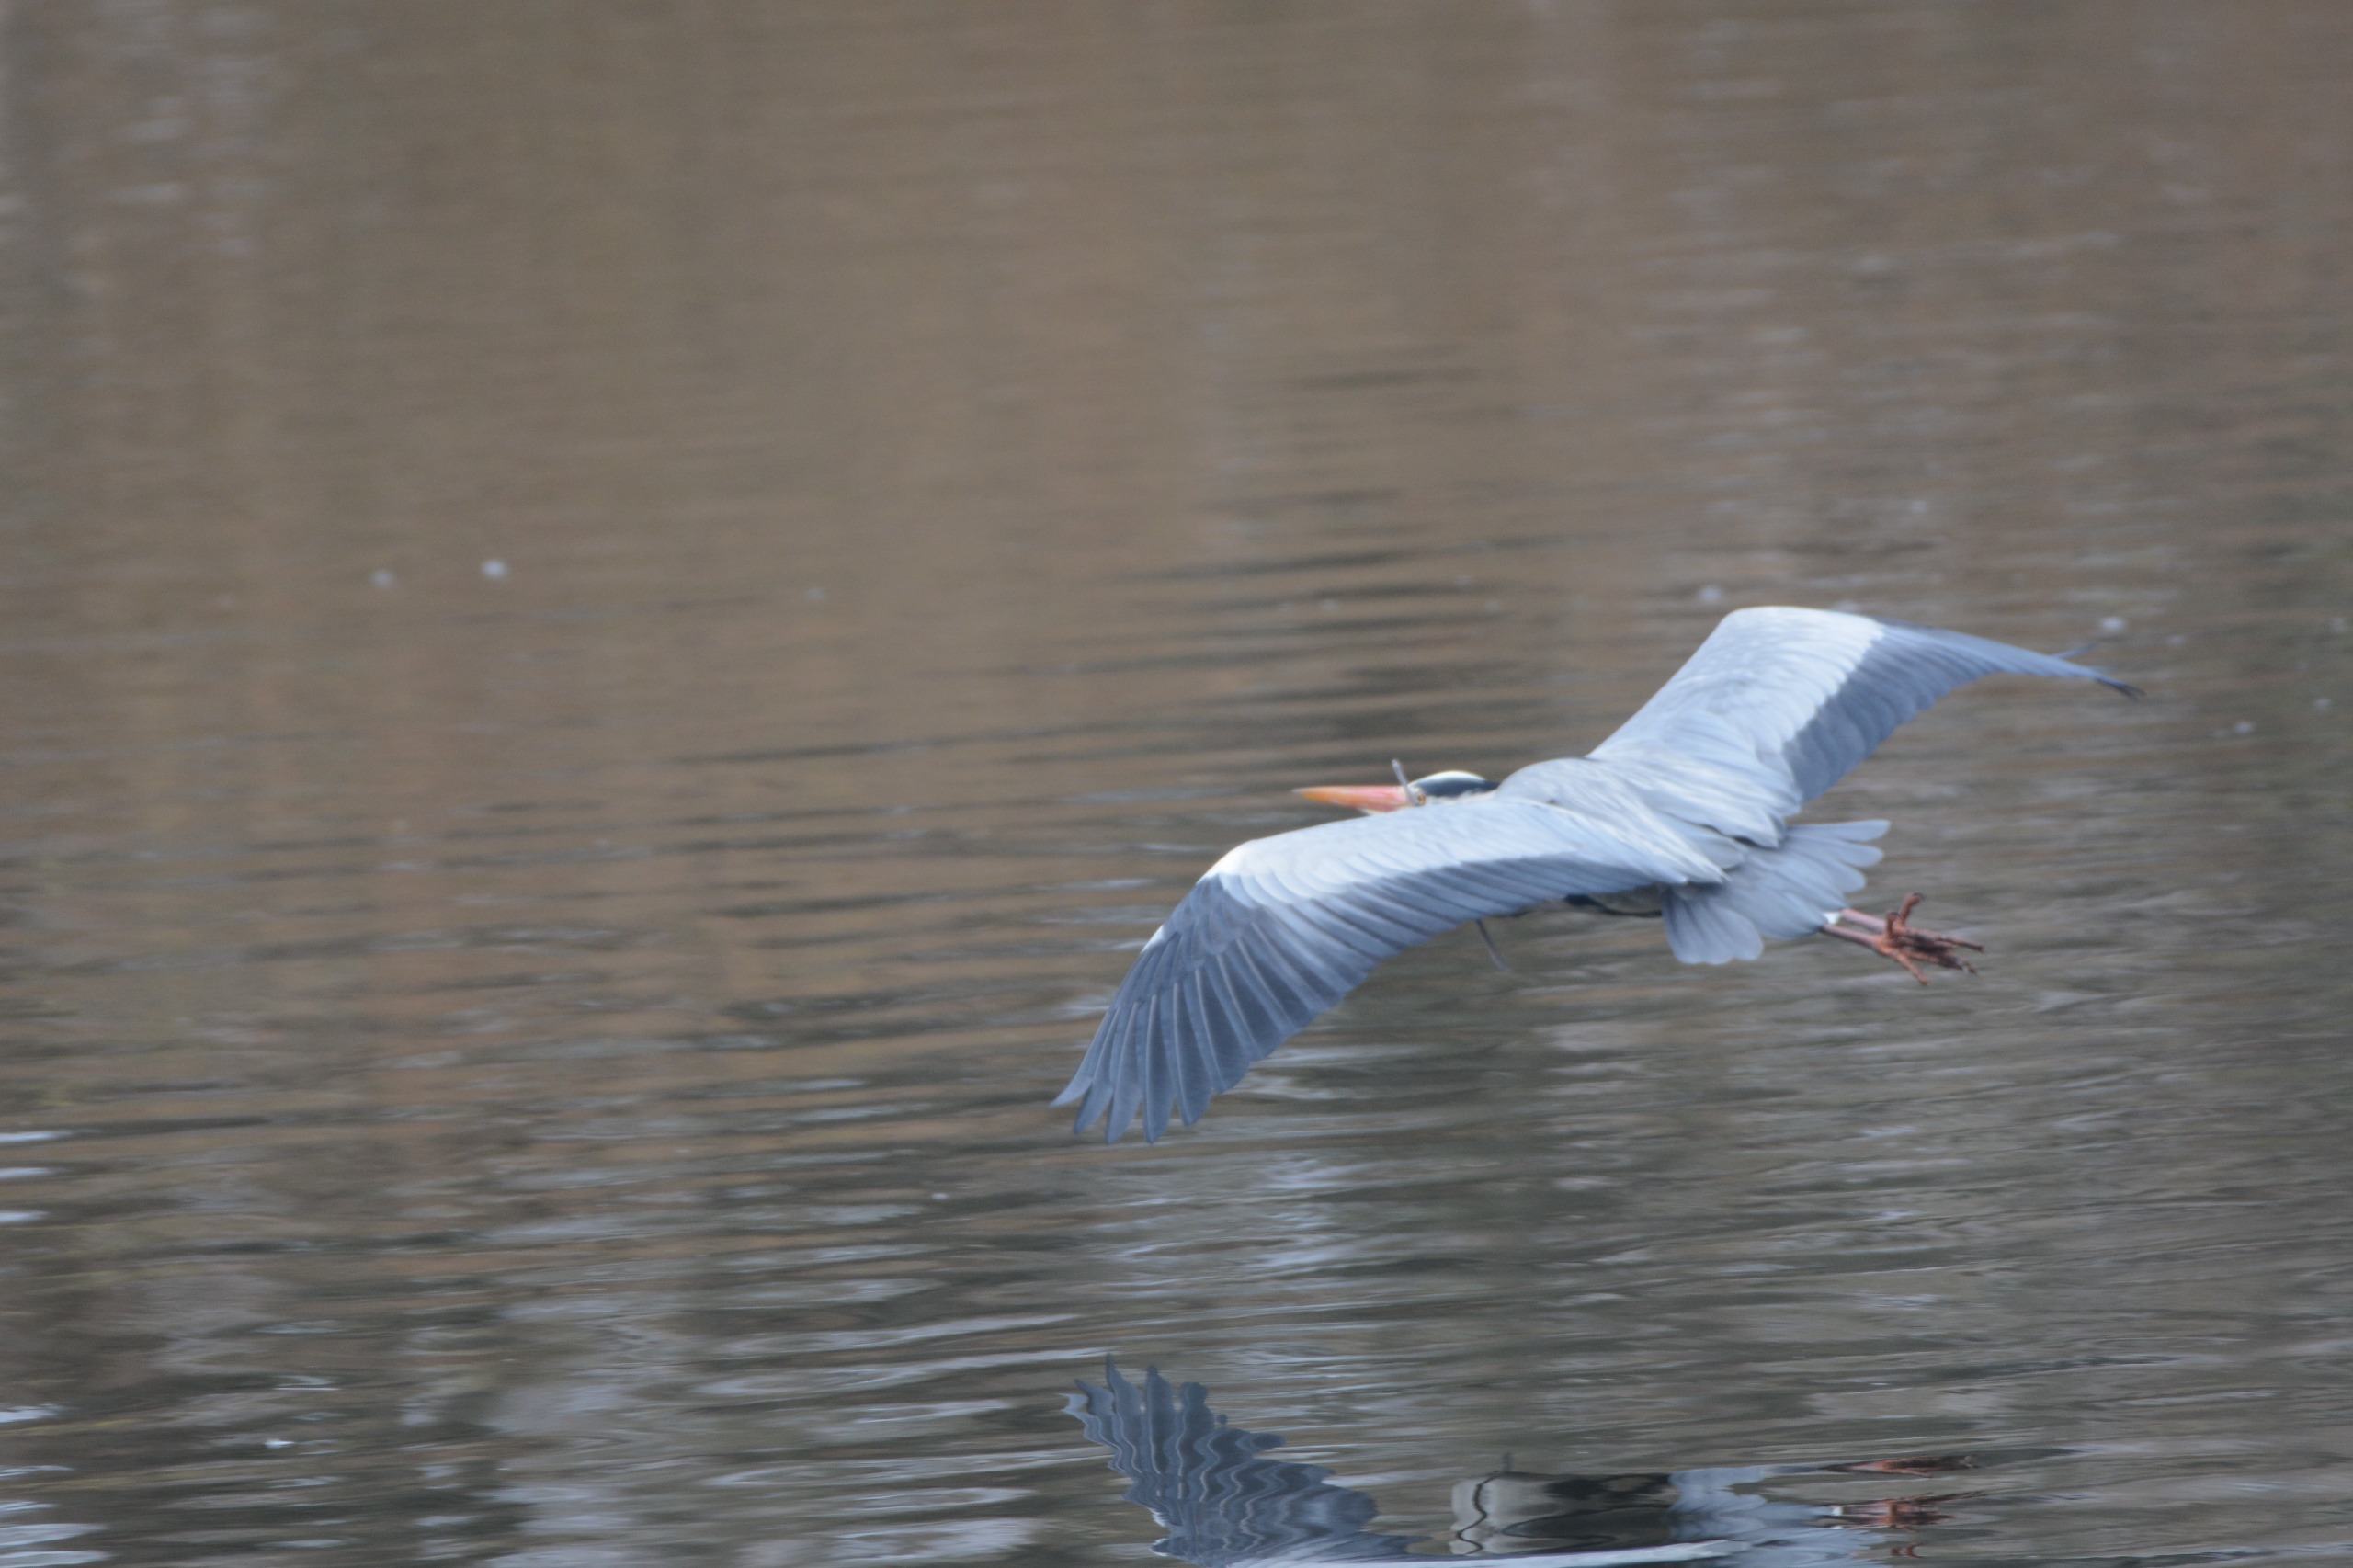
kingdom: Animalia
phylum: Chordata
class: Aves
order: Pelecaniformes
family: Ardeidae
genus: Ardea
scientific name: Ardea cinerea
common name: Fiskehejre
